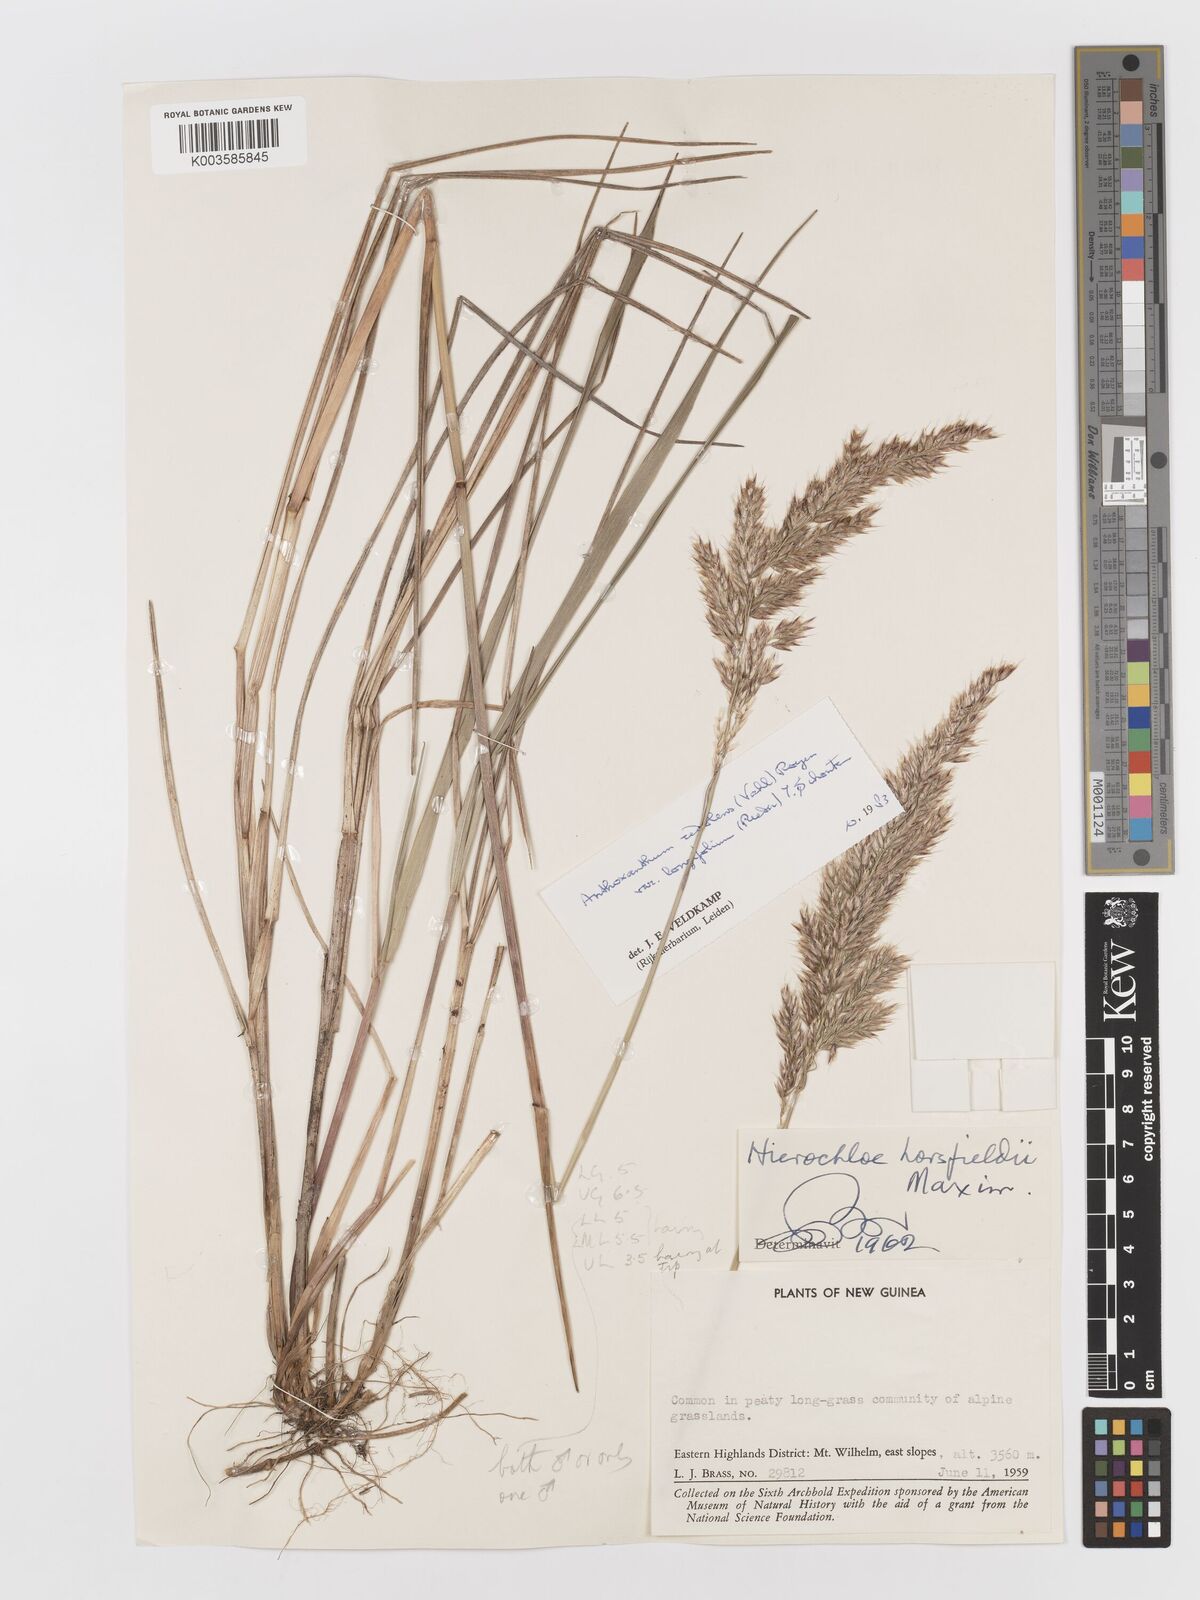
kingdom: Plantae
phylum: Tracheophyta
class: Liliopsida
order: Poales
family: Poaceae
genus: Anthoxanthum
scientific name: Anthoxanthum redolens
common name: Sweet holy grass
